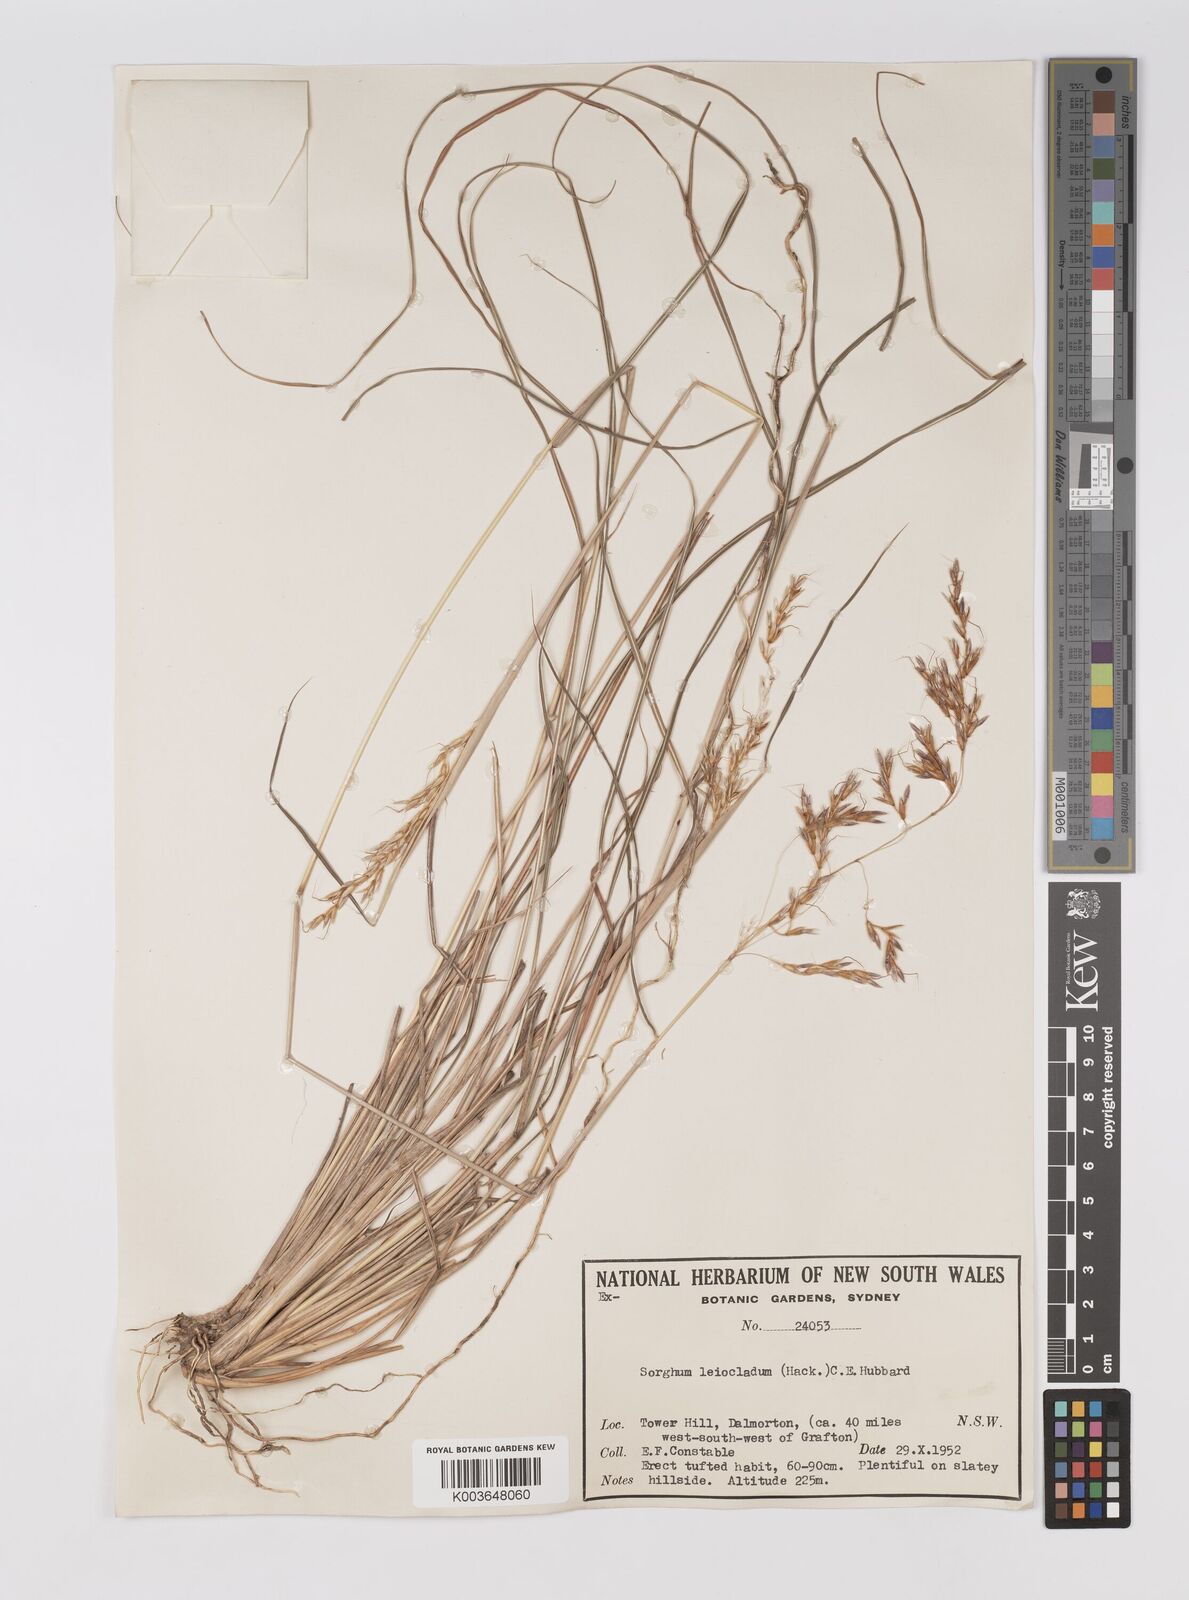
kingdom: Plantae
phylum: Tracheophyta
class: Liliopsida
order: Poales
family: Poaceae
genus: Sarga
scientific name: Sarga leioclada
